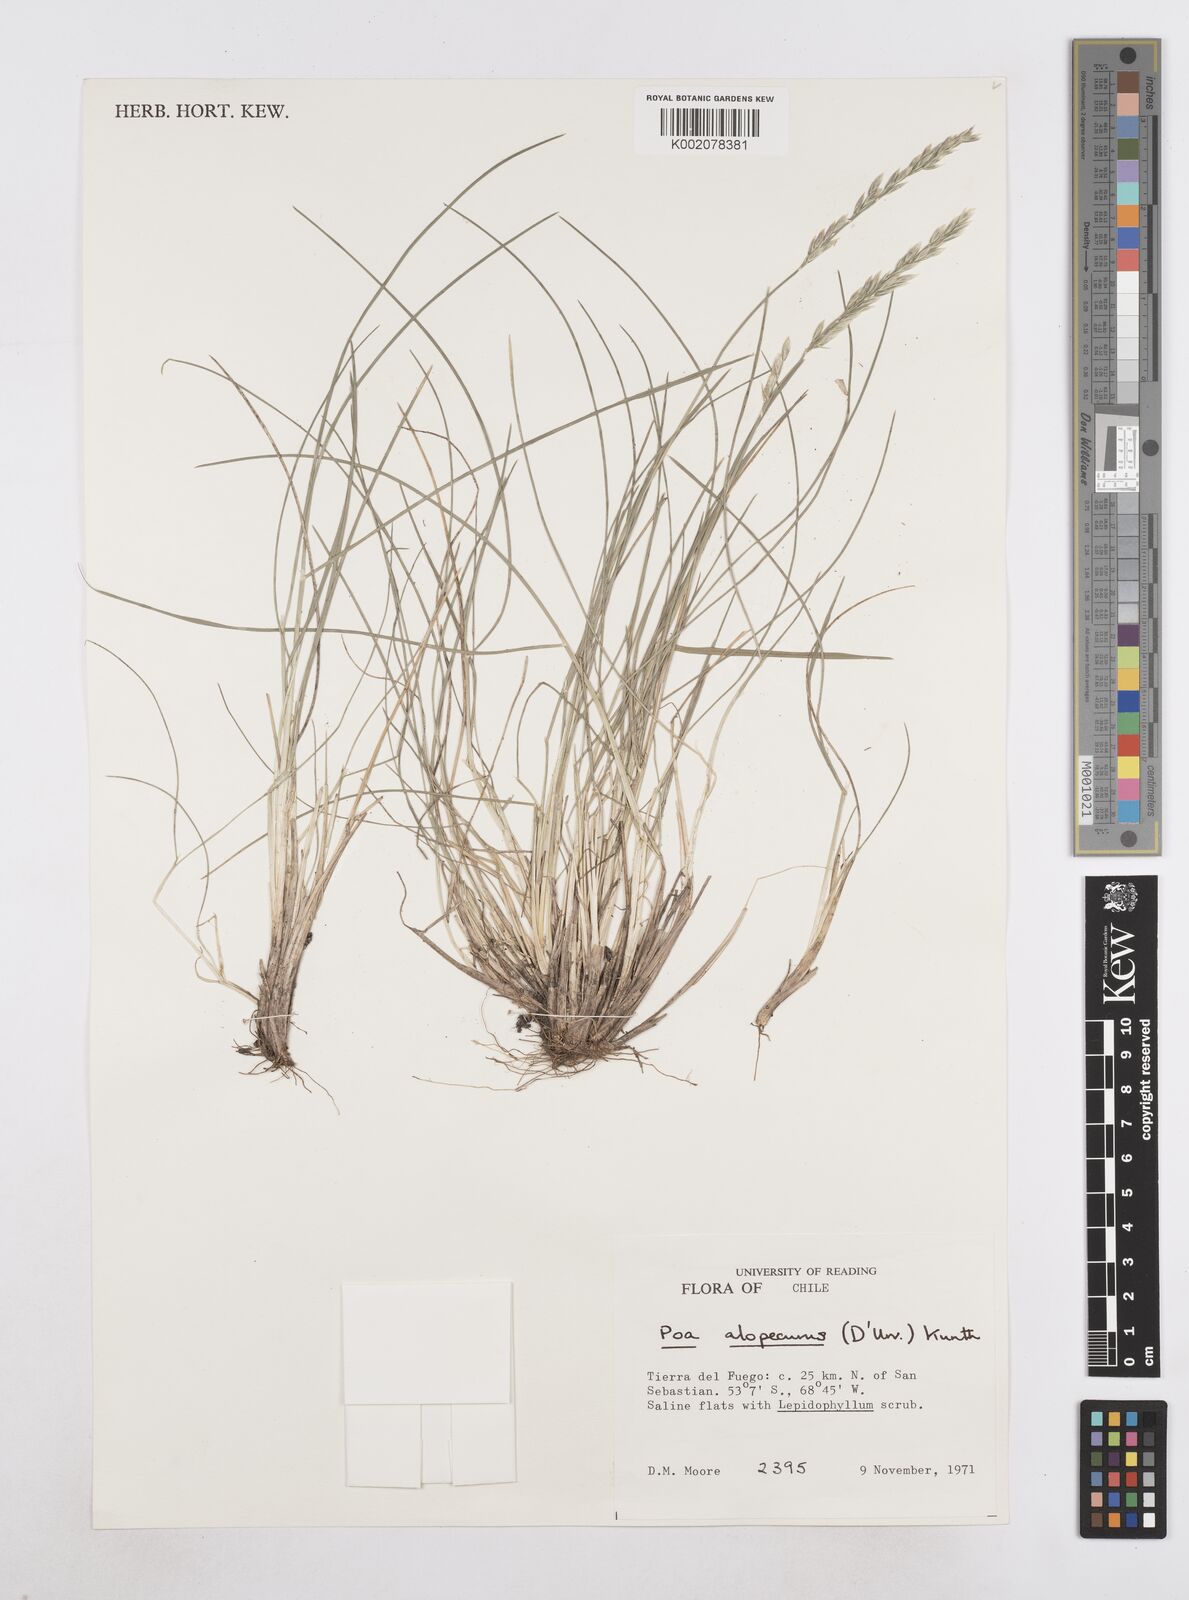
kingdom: Plantae
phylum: Tracheophyta
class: Liliopsida
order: Poales
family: Poaceae
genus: Poa
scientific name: Poa alopecurus
